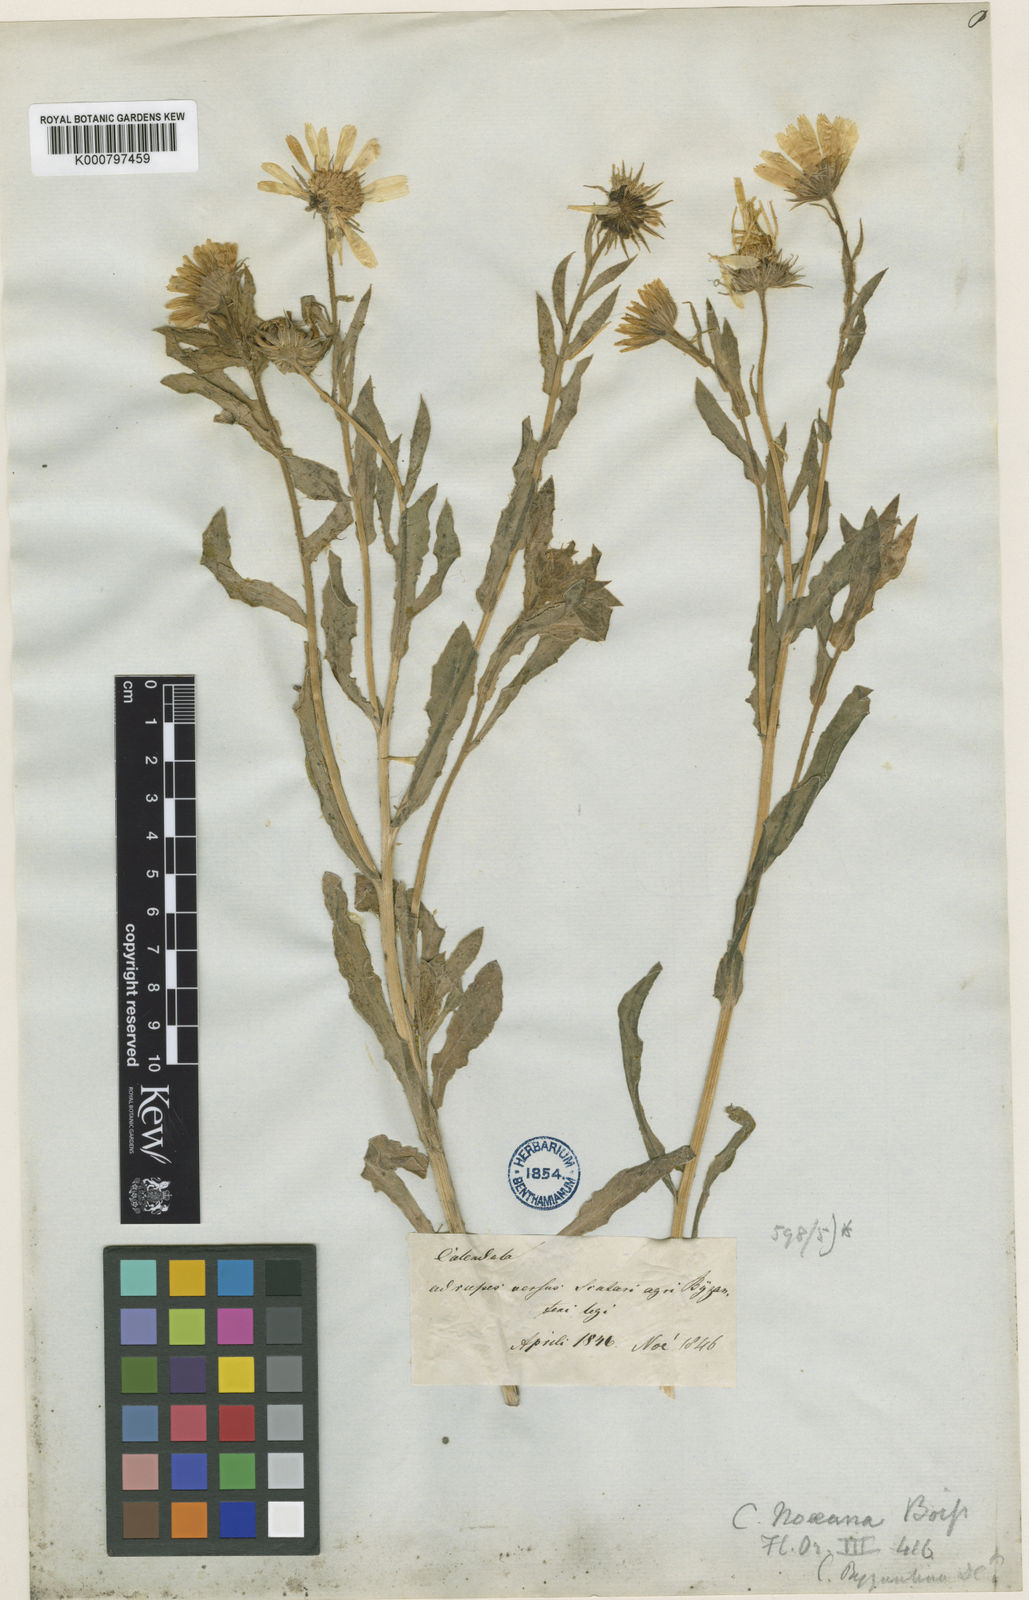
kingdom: Plantae
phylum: Tracheophyta
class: Magnoliopsida
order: Asterales
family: Asteraceae
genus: Calendula
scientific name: Calendula suffruticosa
